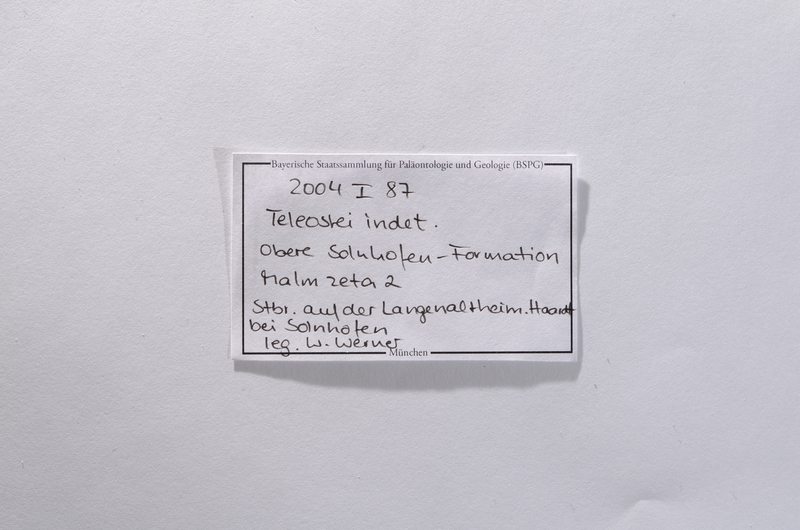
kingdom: Animalia
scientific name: Animalia
